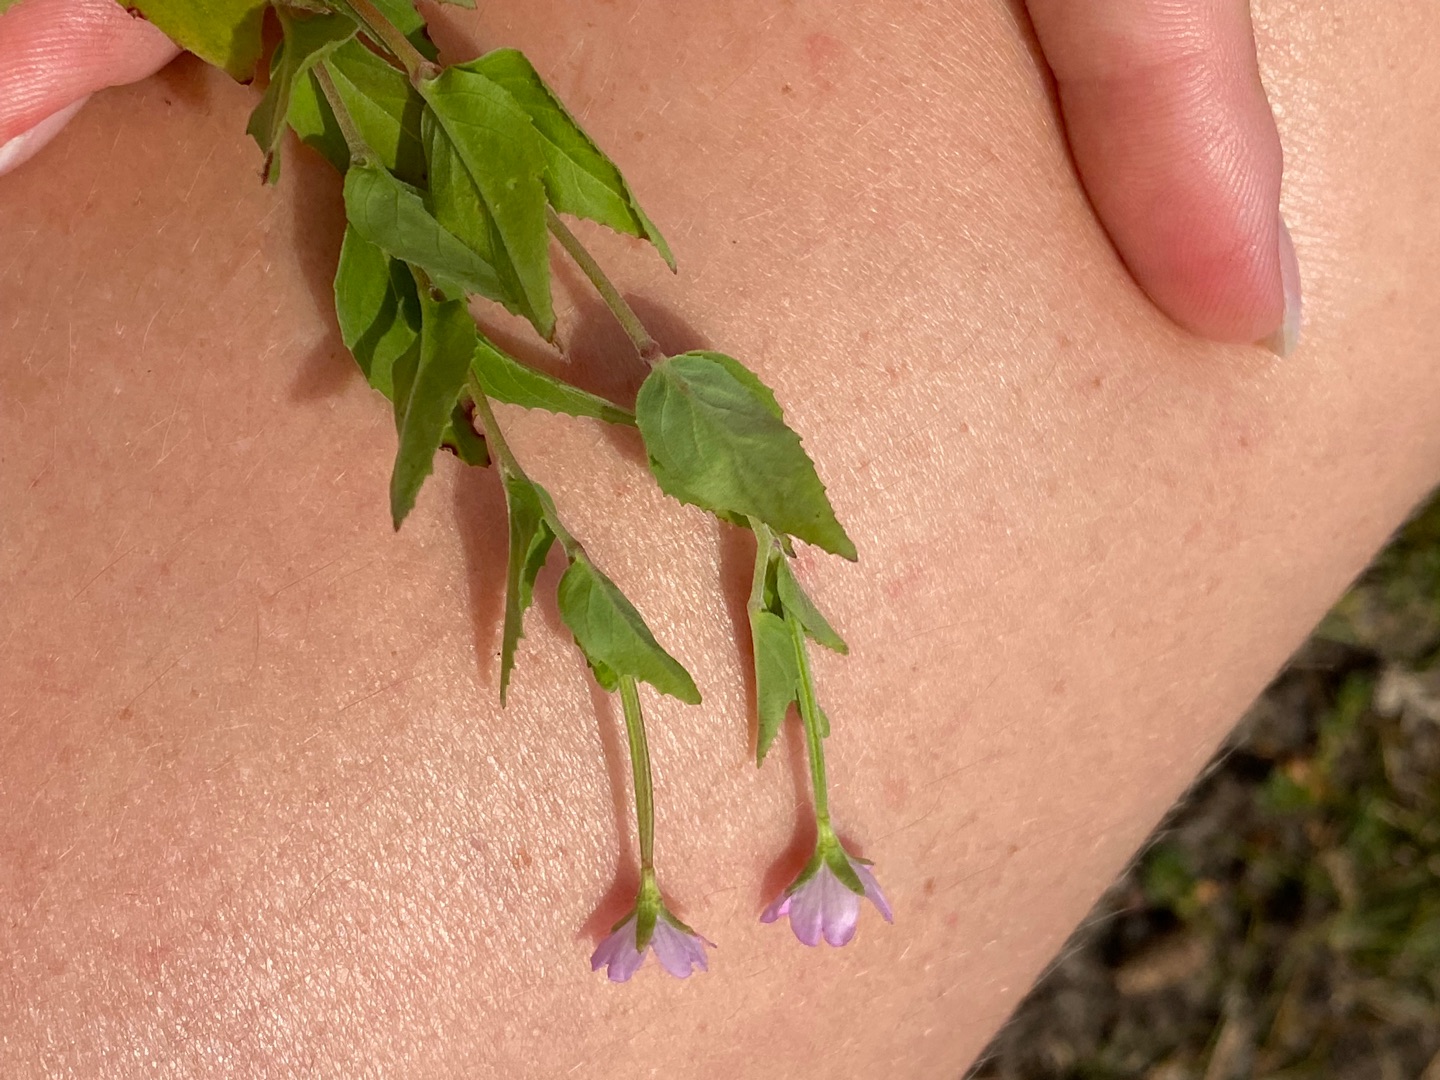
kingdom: Plantae
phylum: Tracheophyta
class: Magnoliopsida
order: Myrtales
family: Onagraceae
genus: Epilobium
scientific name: Epilobium montanum
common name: Glat dueurt
